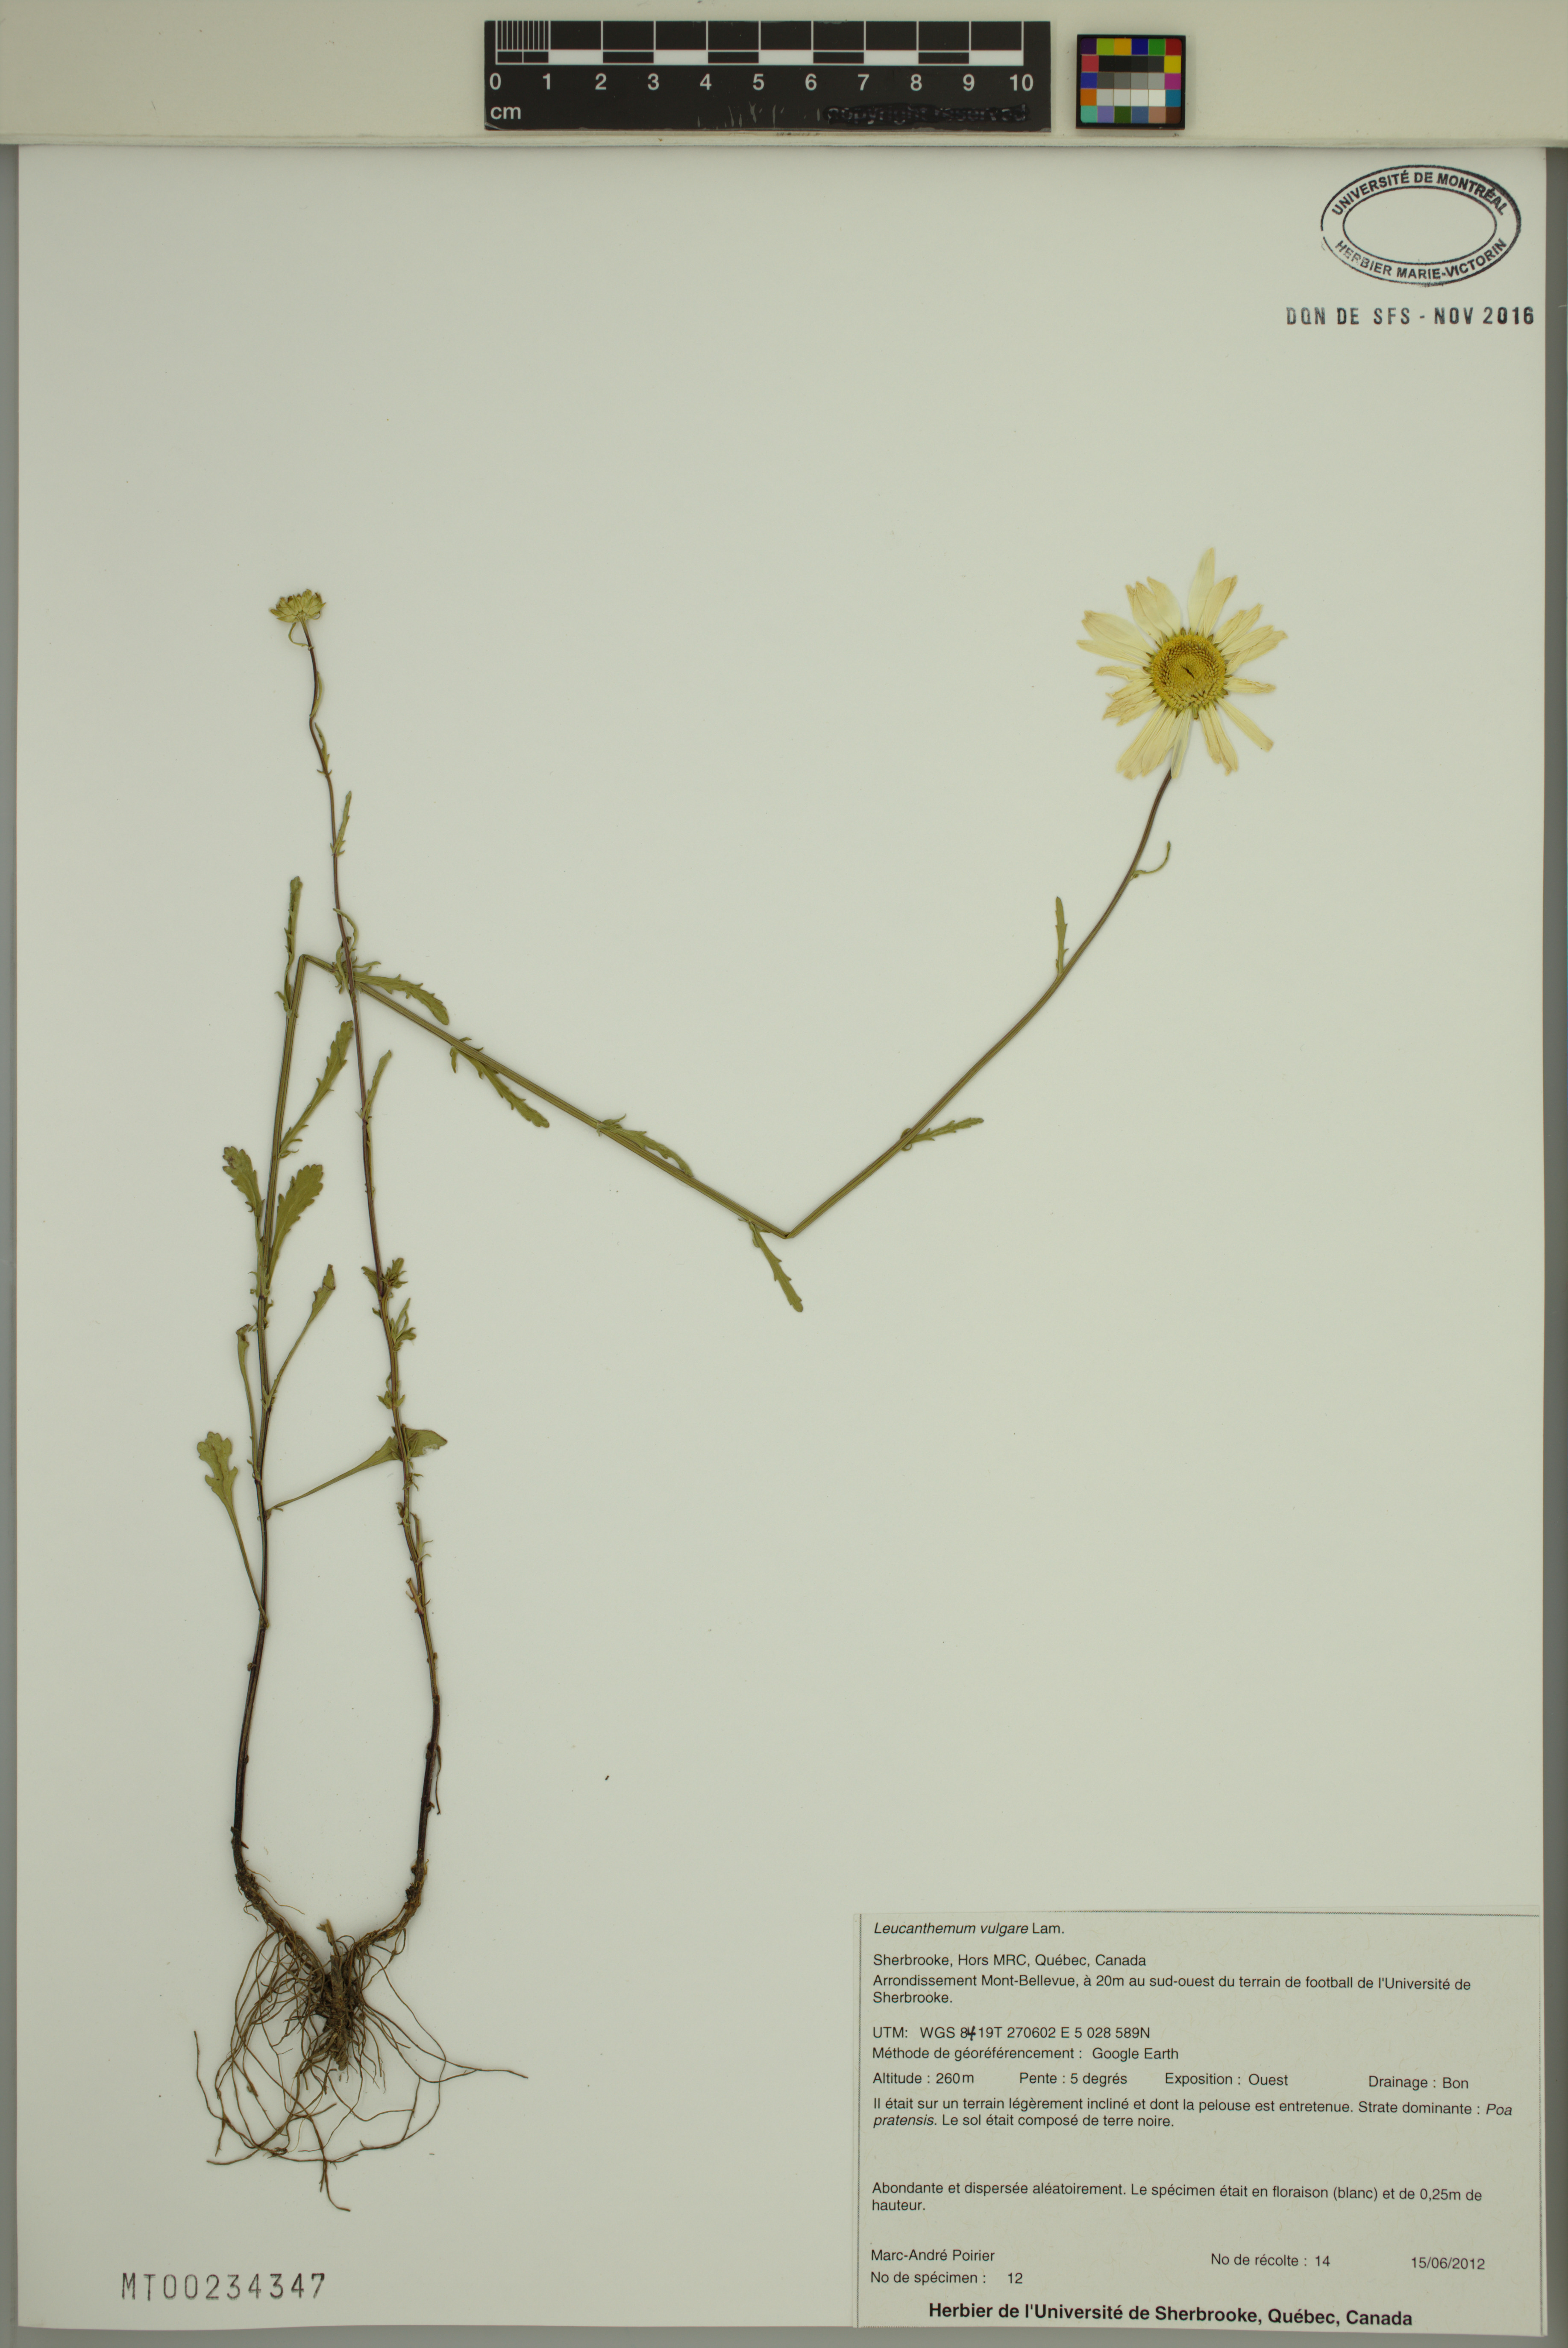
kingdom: Plantae
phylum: Tracheophyta
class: Magnoliopsida
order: Asterales
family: Asteraceae
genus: Leucanthemum
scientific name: Leucanthemum vulgare
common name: Oxeye daisy
